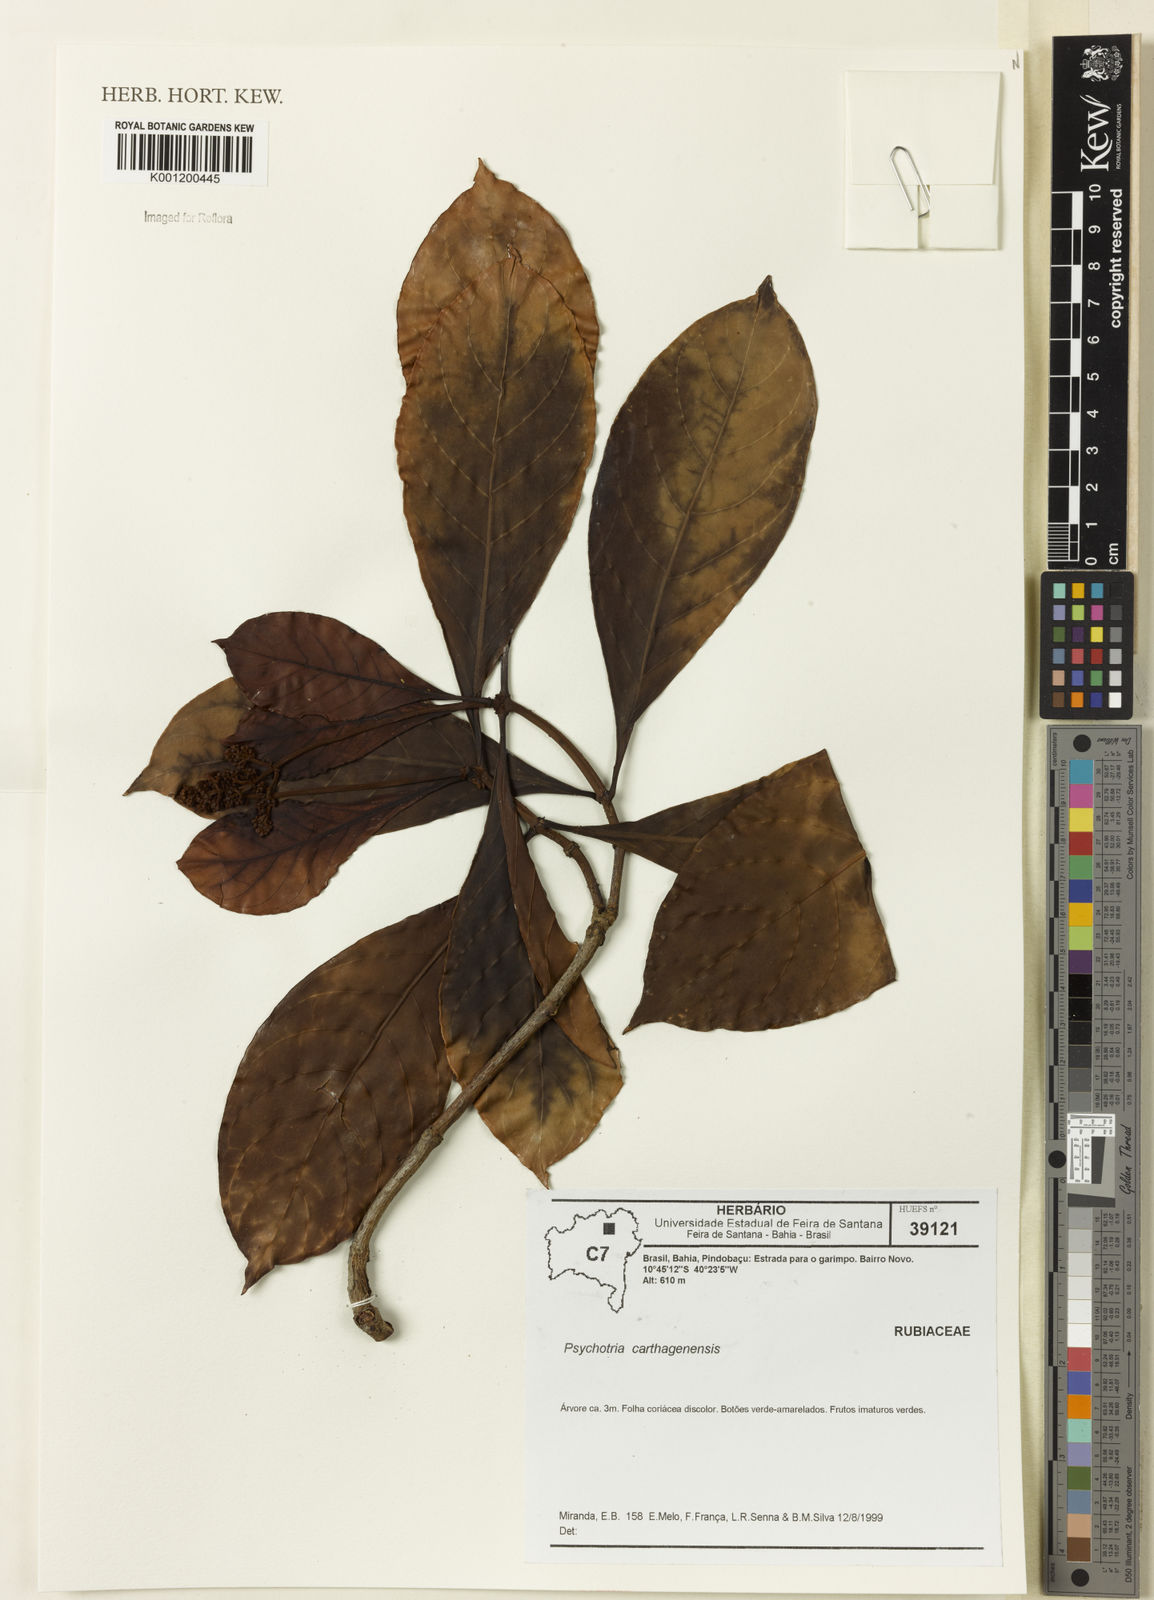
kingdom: Plantae
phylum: Tracheophyta
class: Magnoliopsida
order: Gentianales
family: Rubiaceae
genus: Psychotria
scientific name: Psychotria carthagenensis
